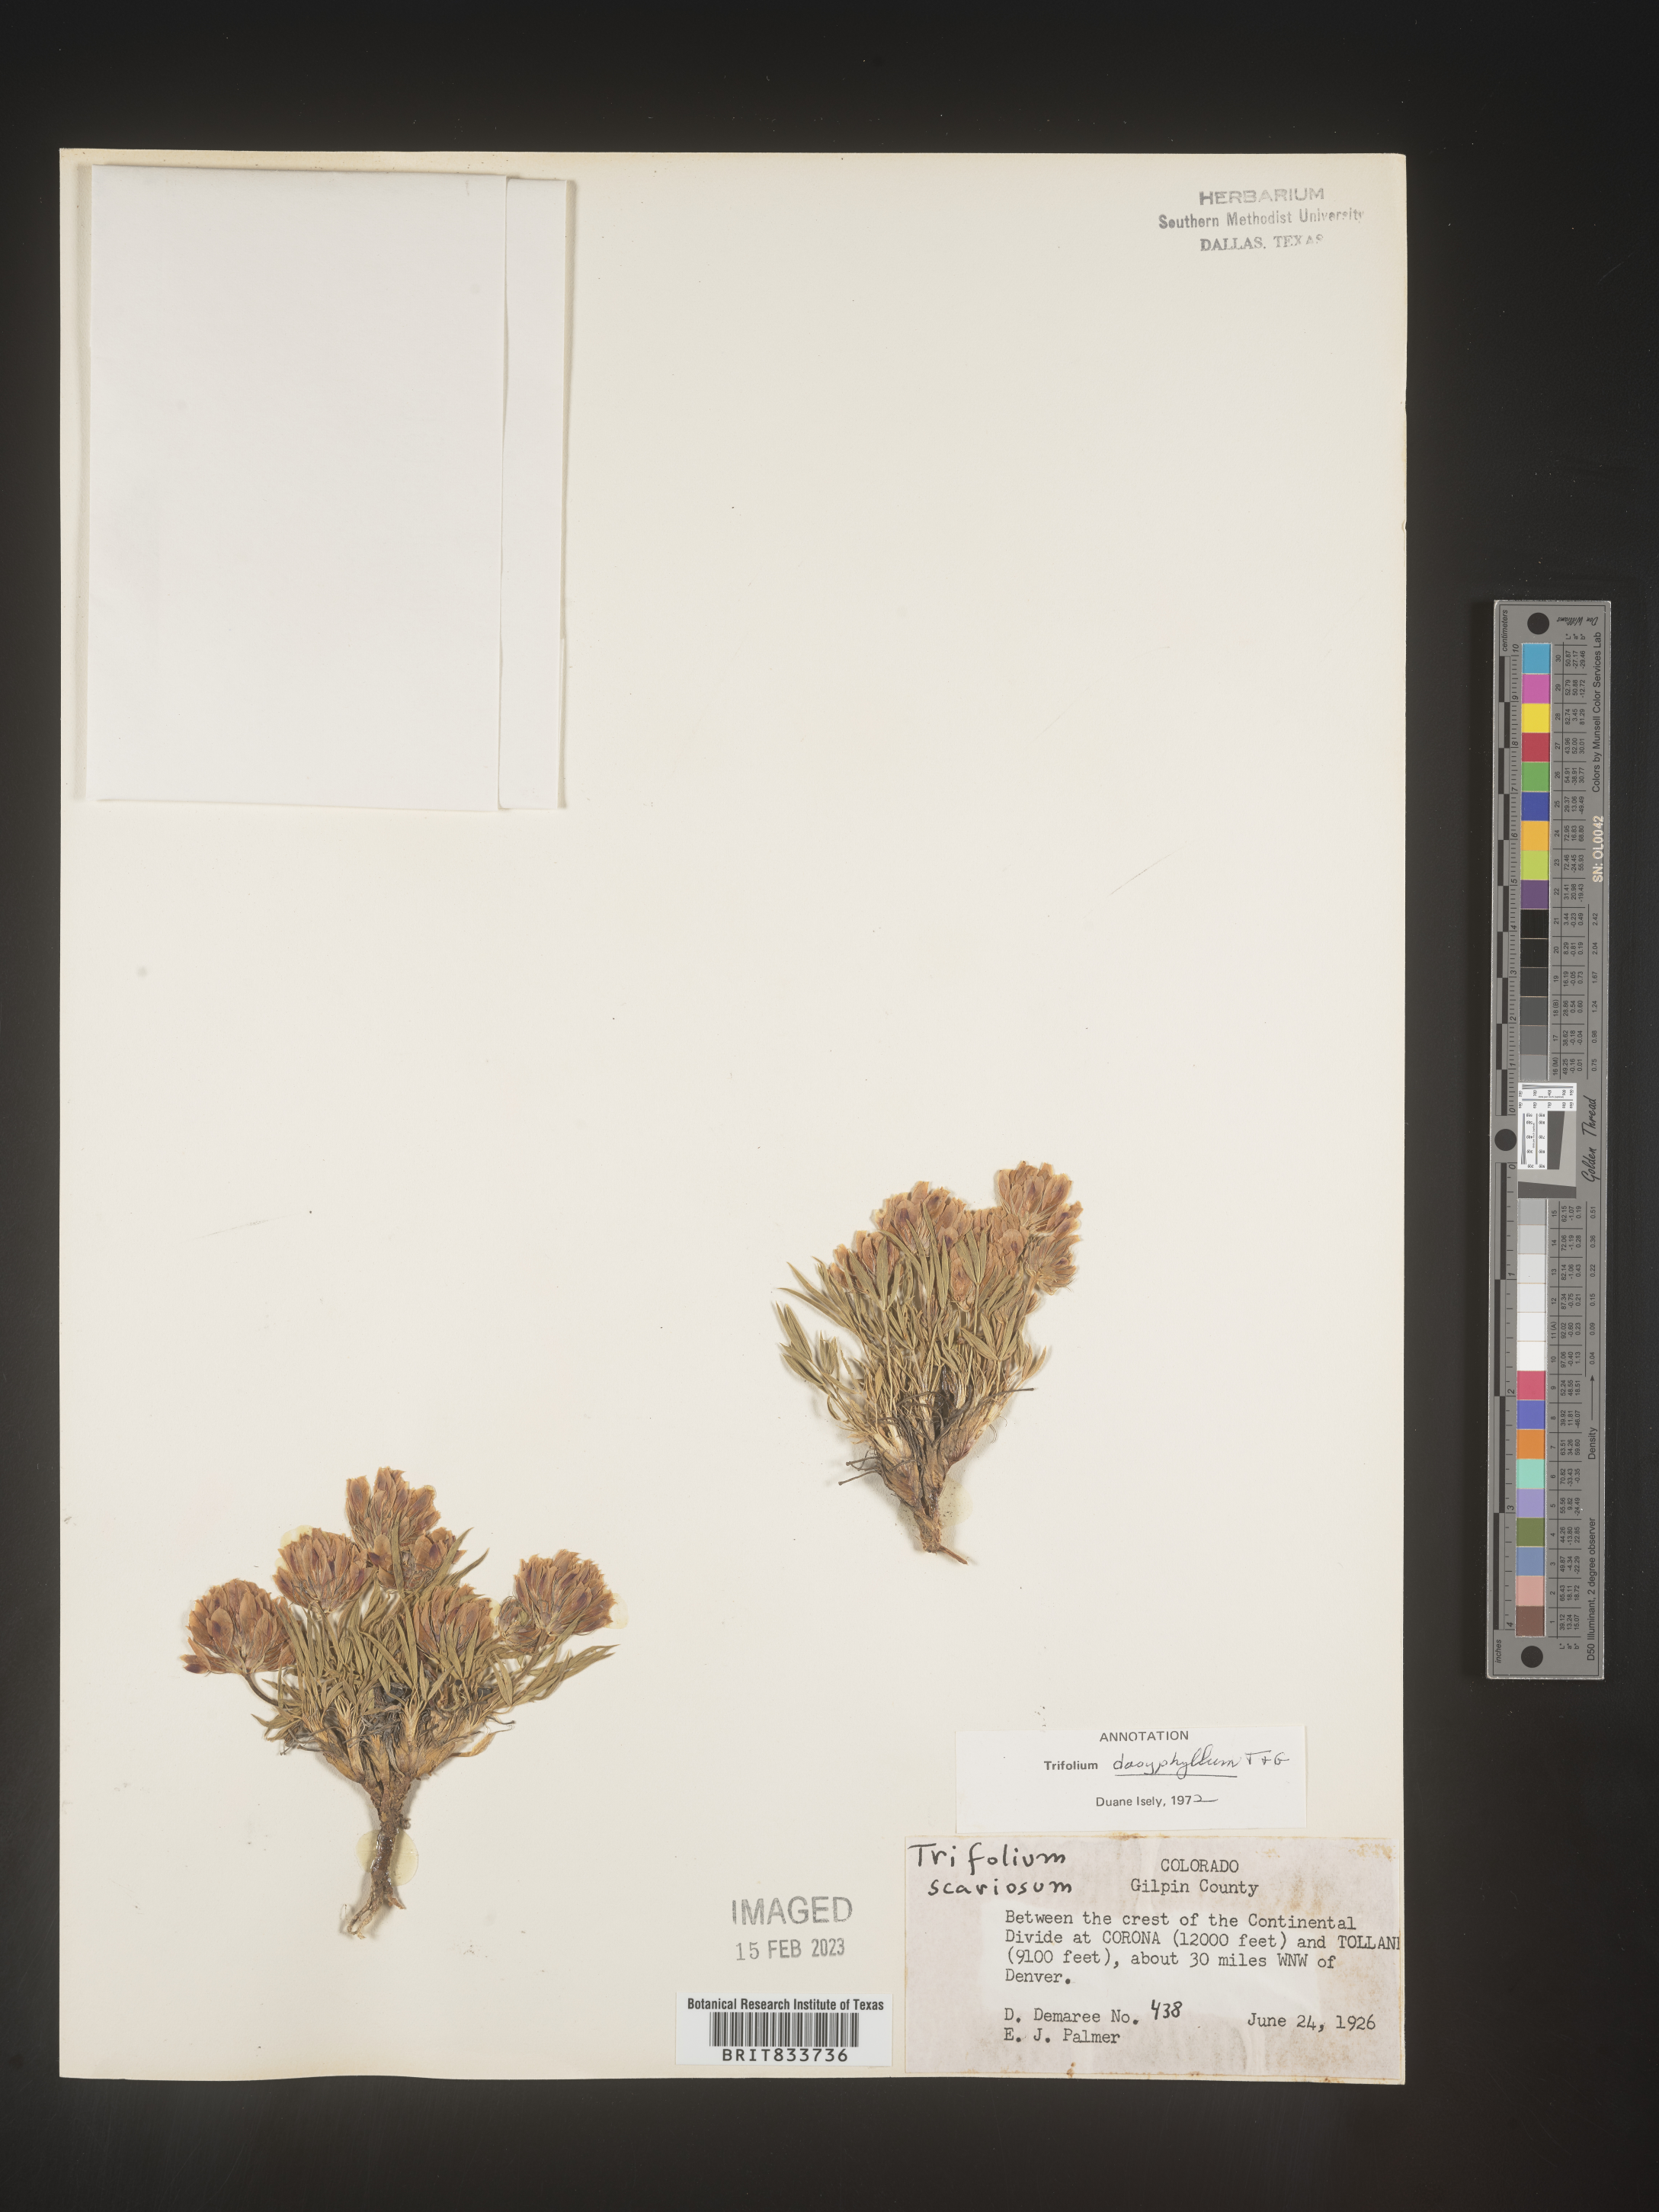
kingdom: Plantae
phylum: Tracheophyta
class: Magnoliopsida
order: Fabales
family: Fabaceae
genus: Trifolium
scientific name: Trifolium
